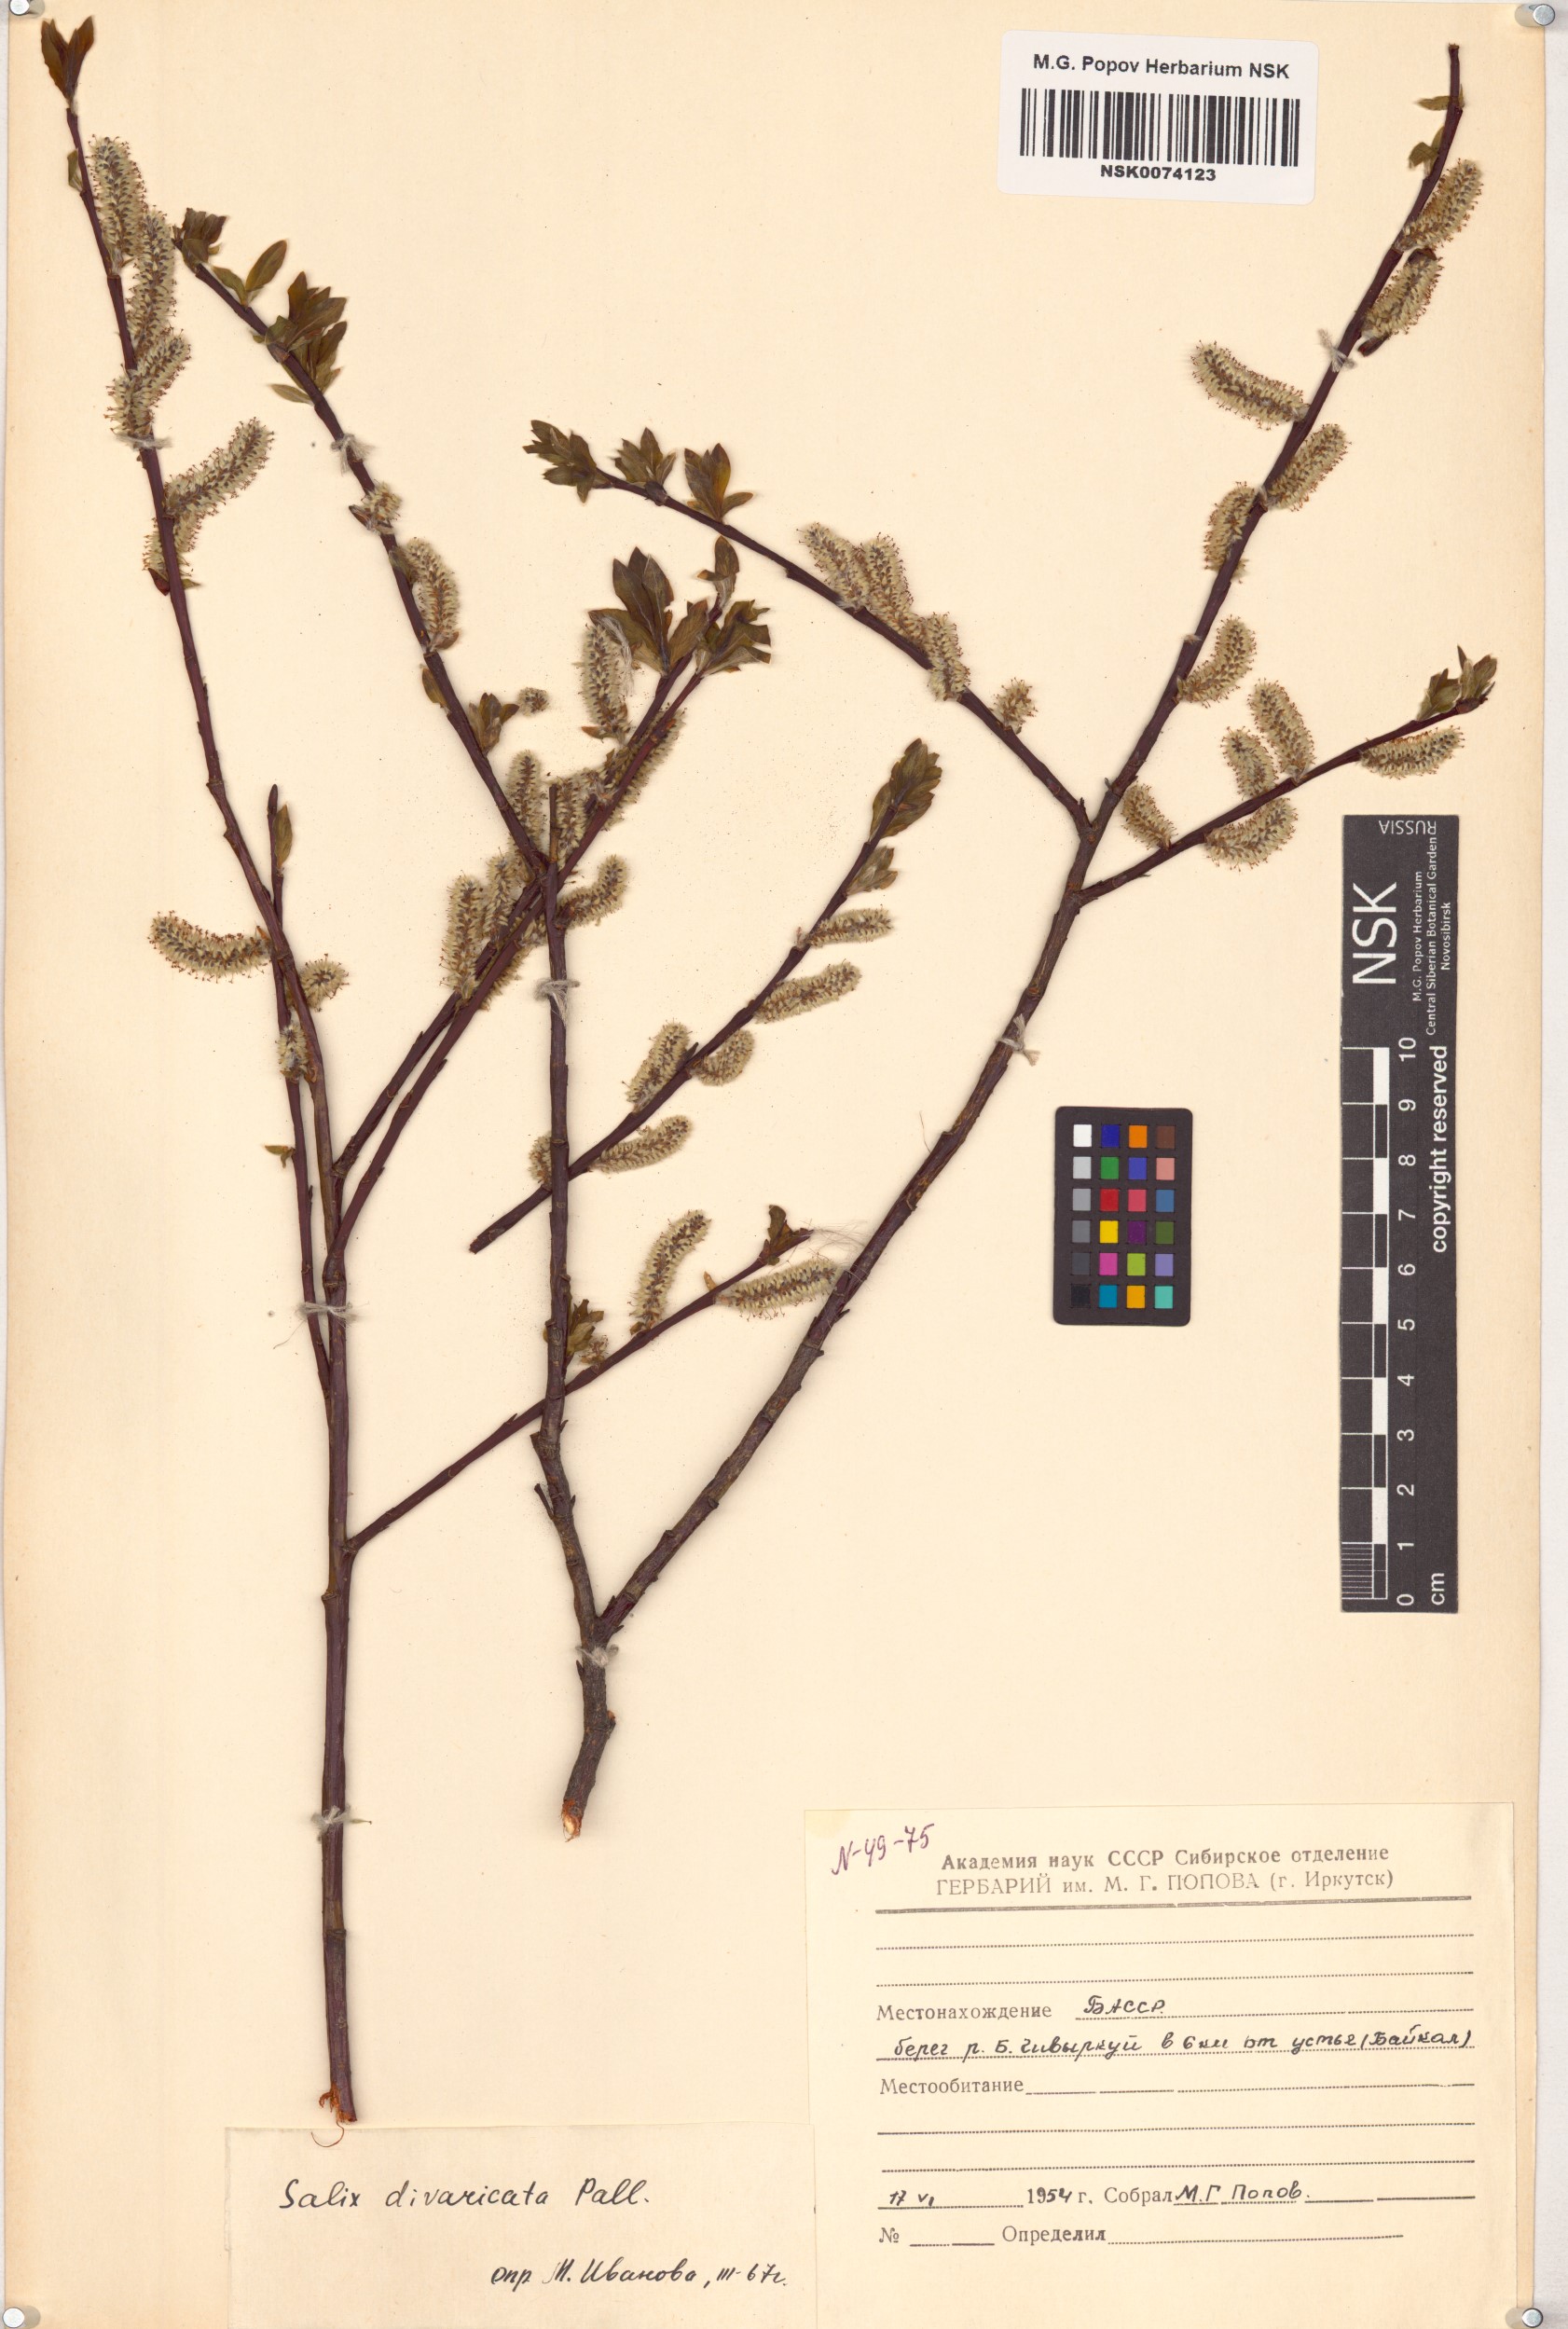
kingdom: Plantae
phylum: Tracheophyta
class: Magnoliopsida
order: Malpighiales
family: Salicaceae
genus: Salix
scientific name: Salix divaricata
